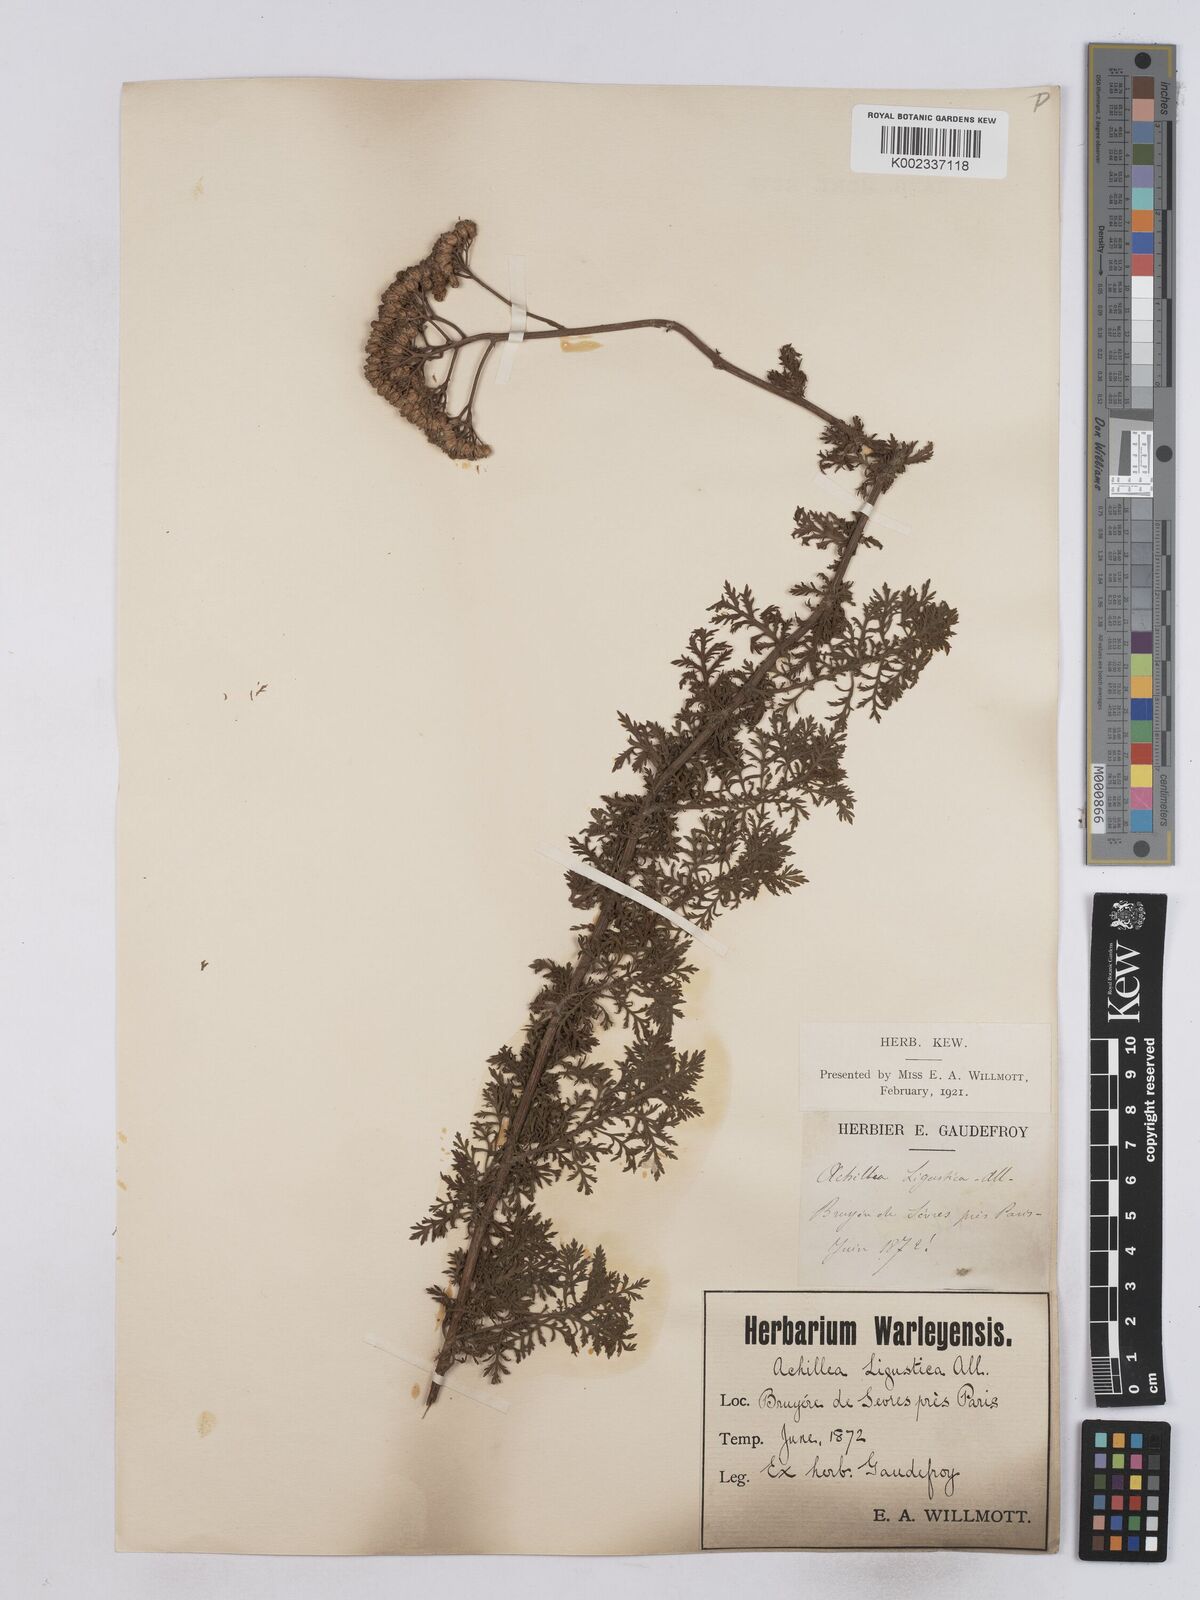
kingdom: Plantae
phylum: Tracheophyta
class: Magnoliopsida
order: Asterales
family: Asteraceae
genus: Achillea
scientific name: Achillea ligustica
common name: Southern yarrow
